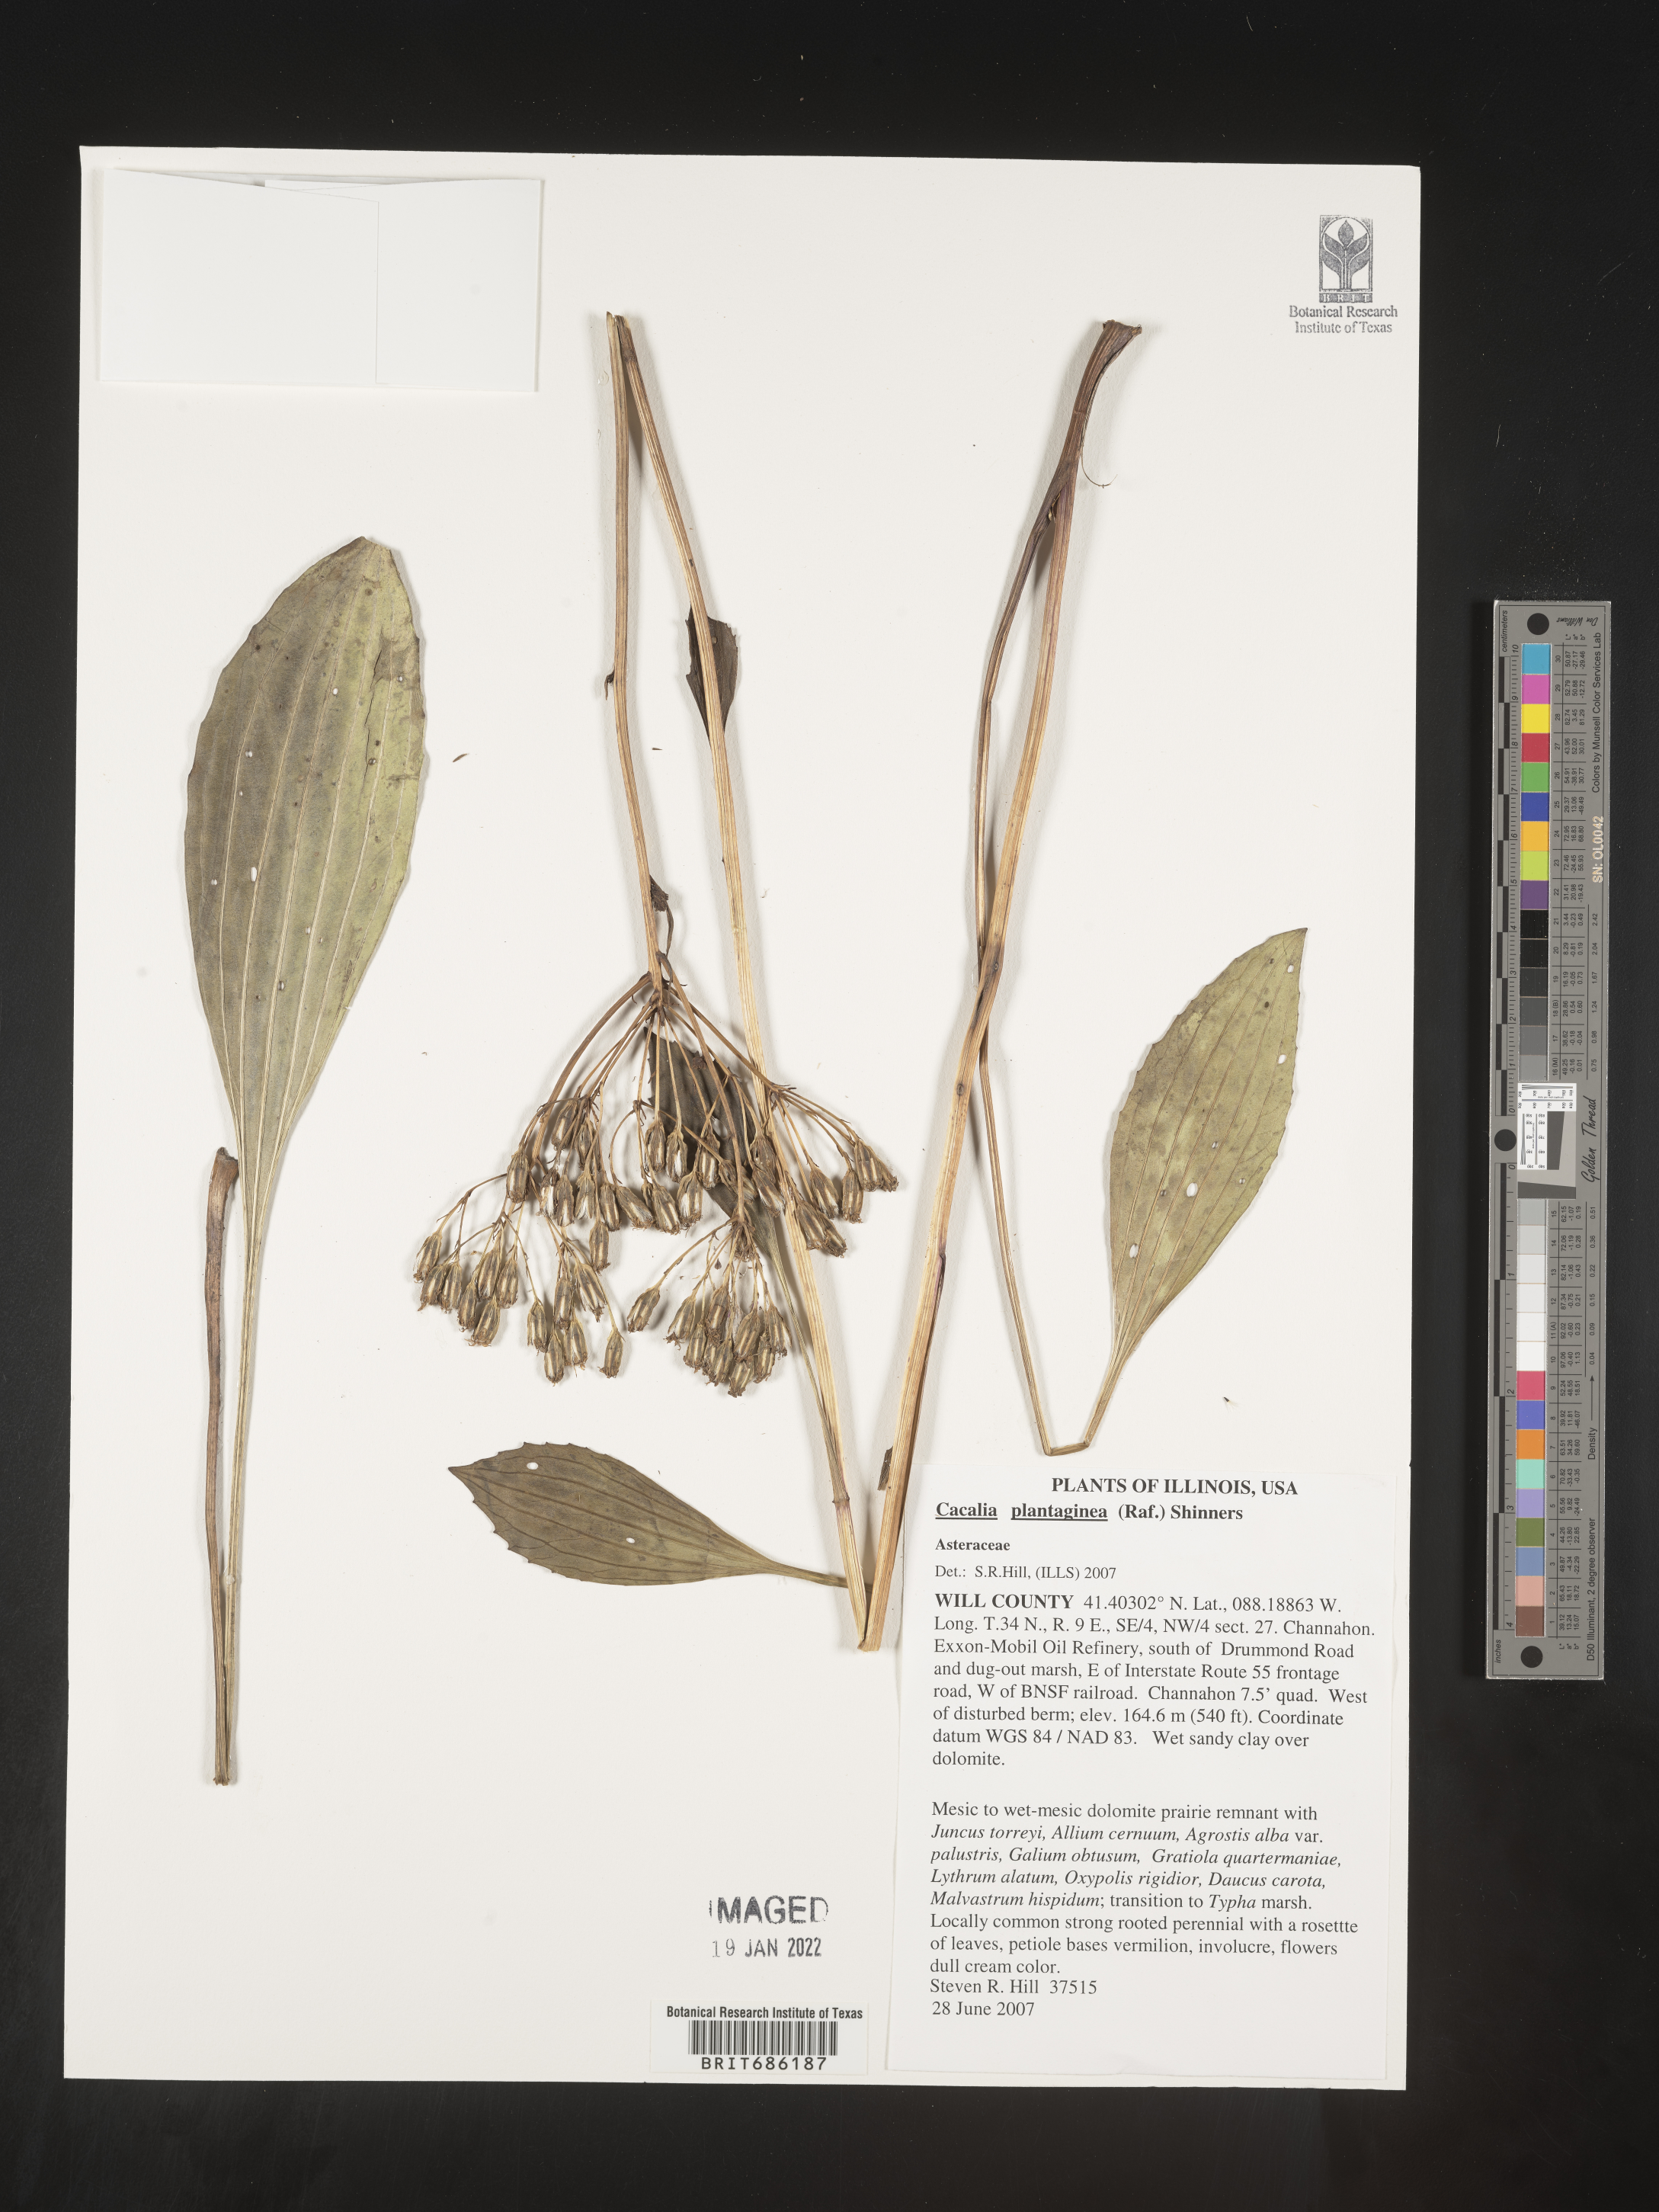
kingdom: Plantae
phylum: Tracheophyta
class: Magnoliopsida
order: Asterales
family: Asteraceae
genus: Cacalia
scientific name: Cacalia
